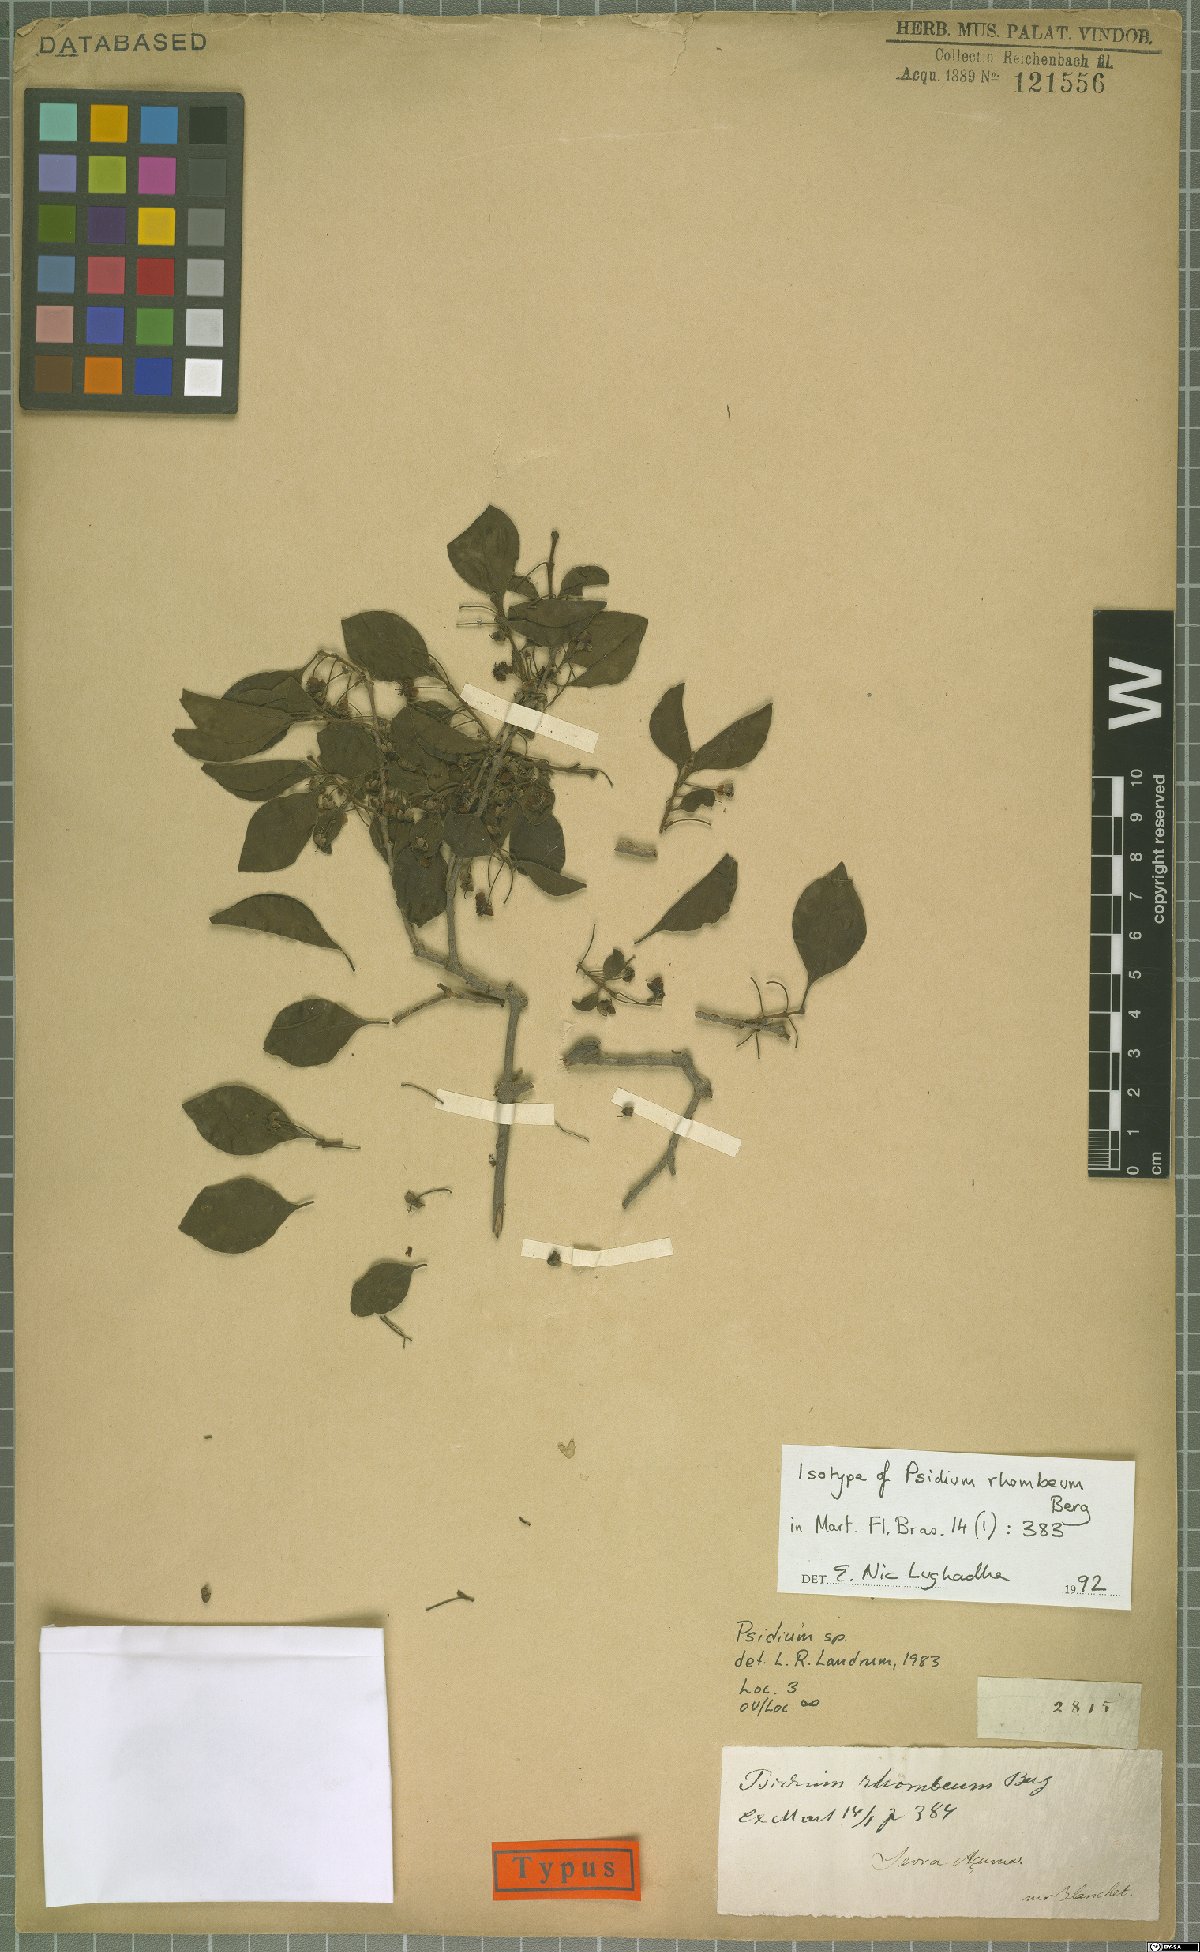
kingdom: Plantae
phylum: Tracheophyta
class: Magnoliopsida
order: Myrtales
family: Myrtaceae
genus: Psidium
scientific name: Psidium rhombeum
